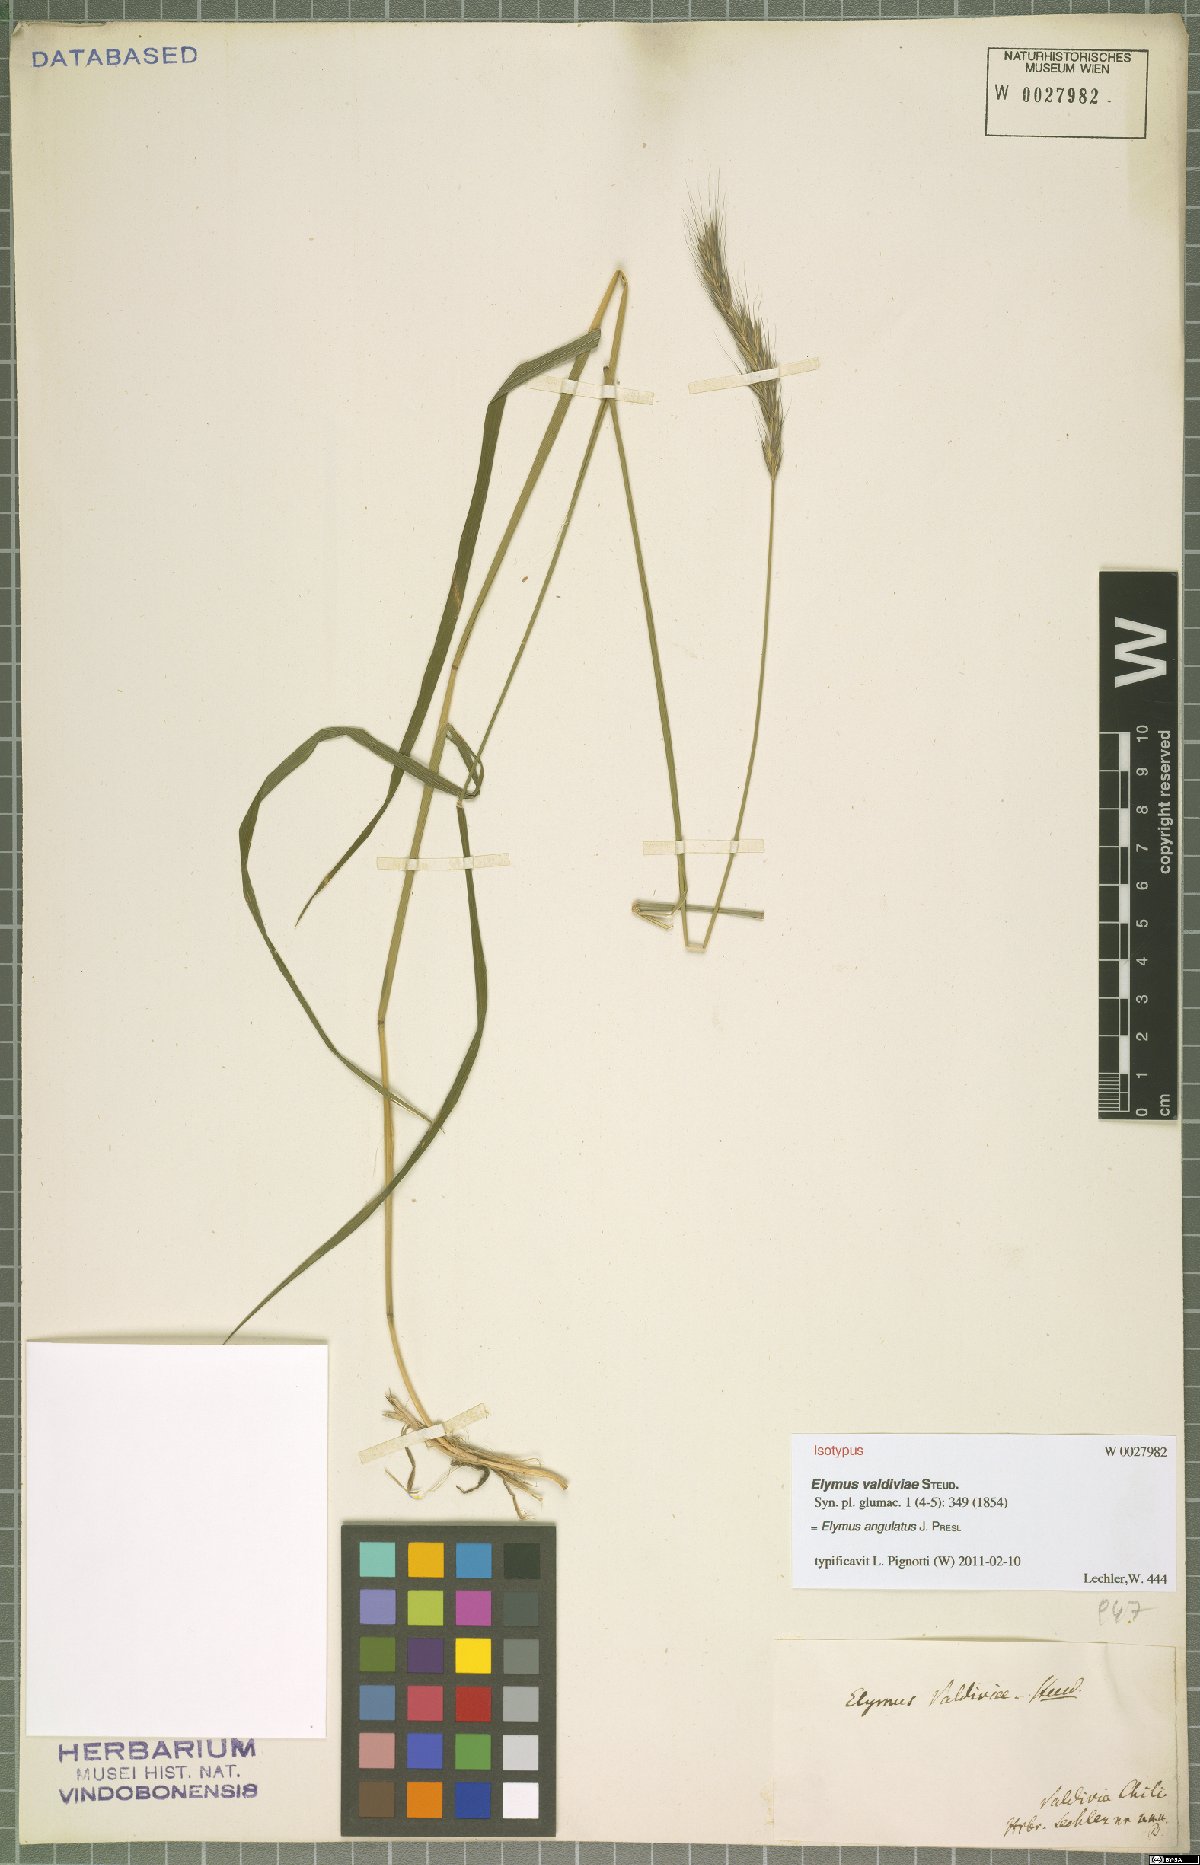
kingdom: Plantae
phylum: Tracheophyta
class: Liliopsida
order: Poales
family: Poaceae
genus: Elymus
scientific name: Elymus angulatus
